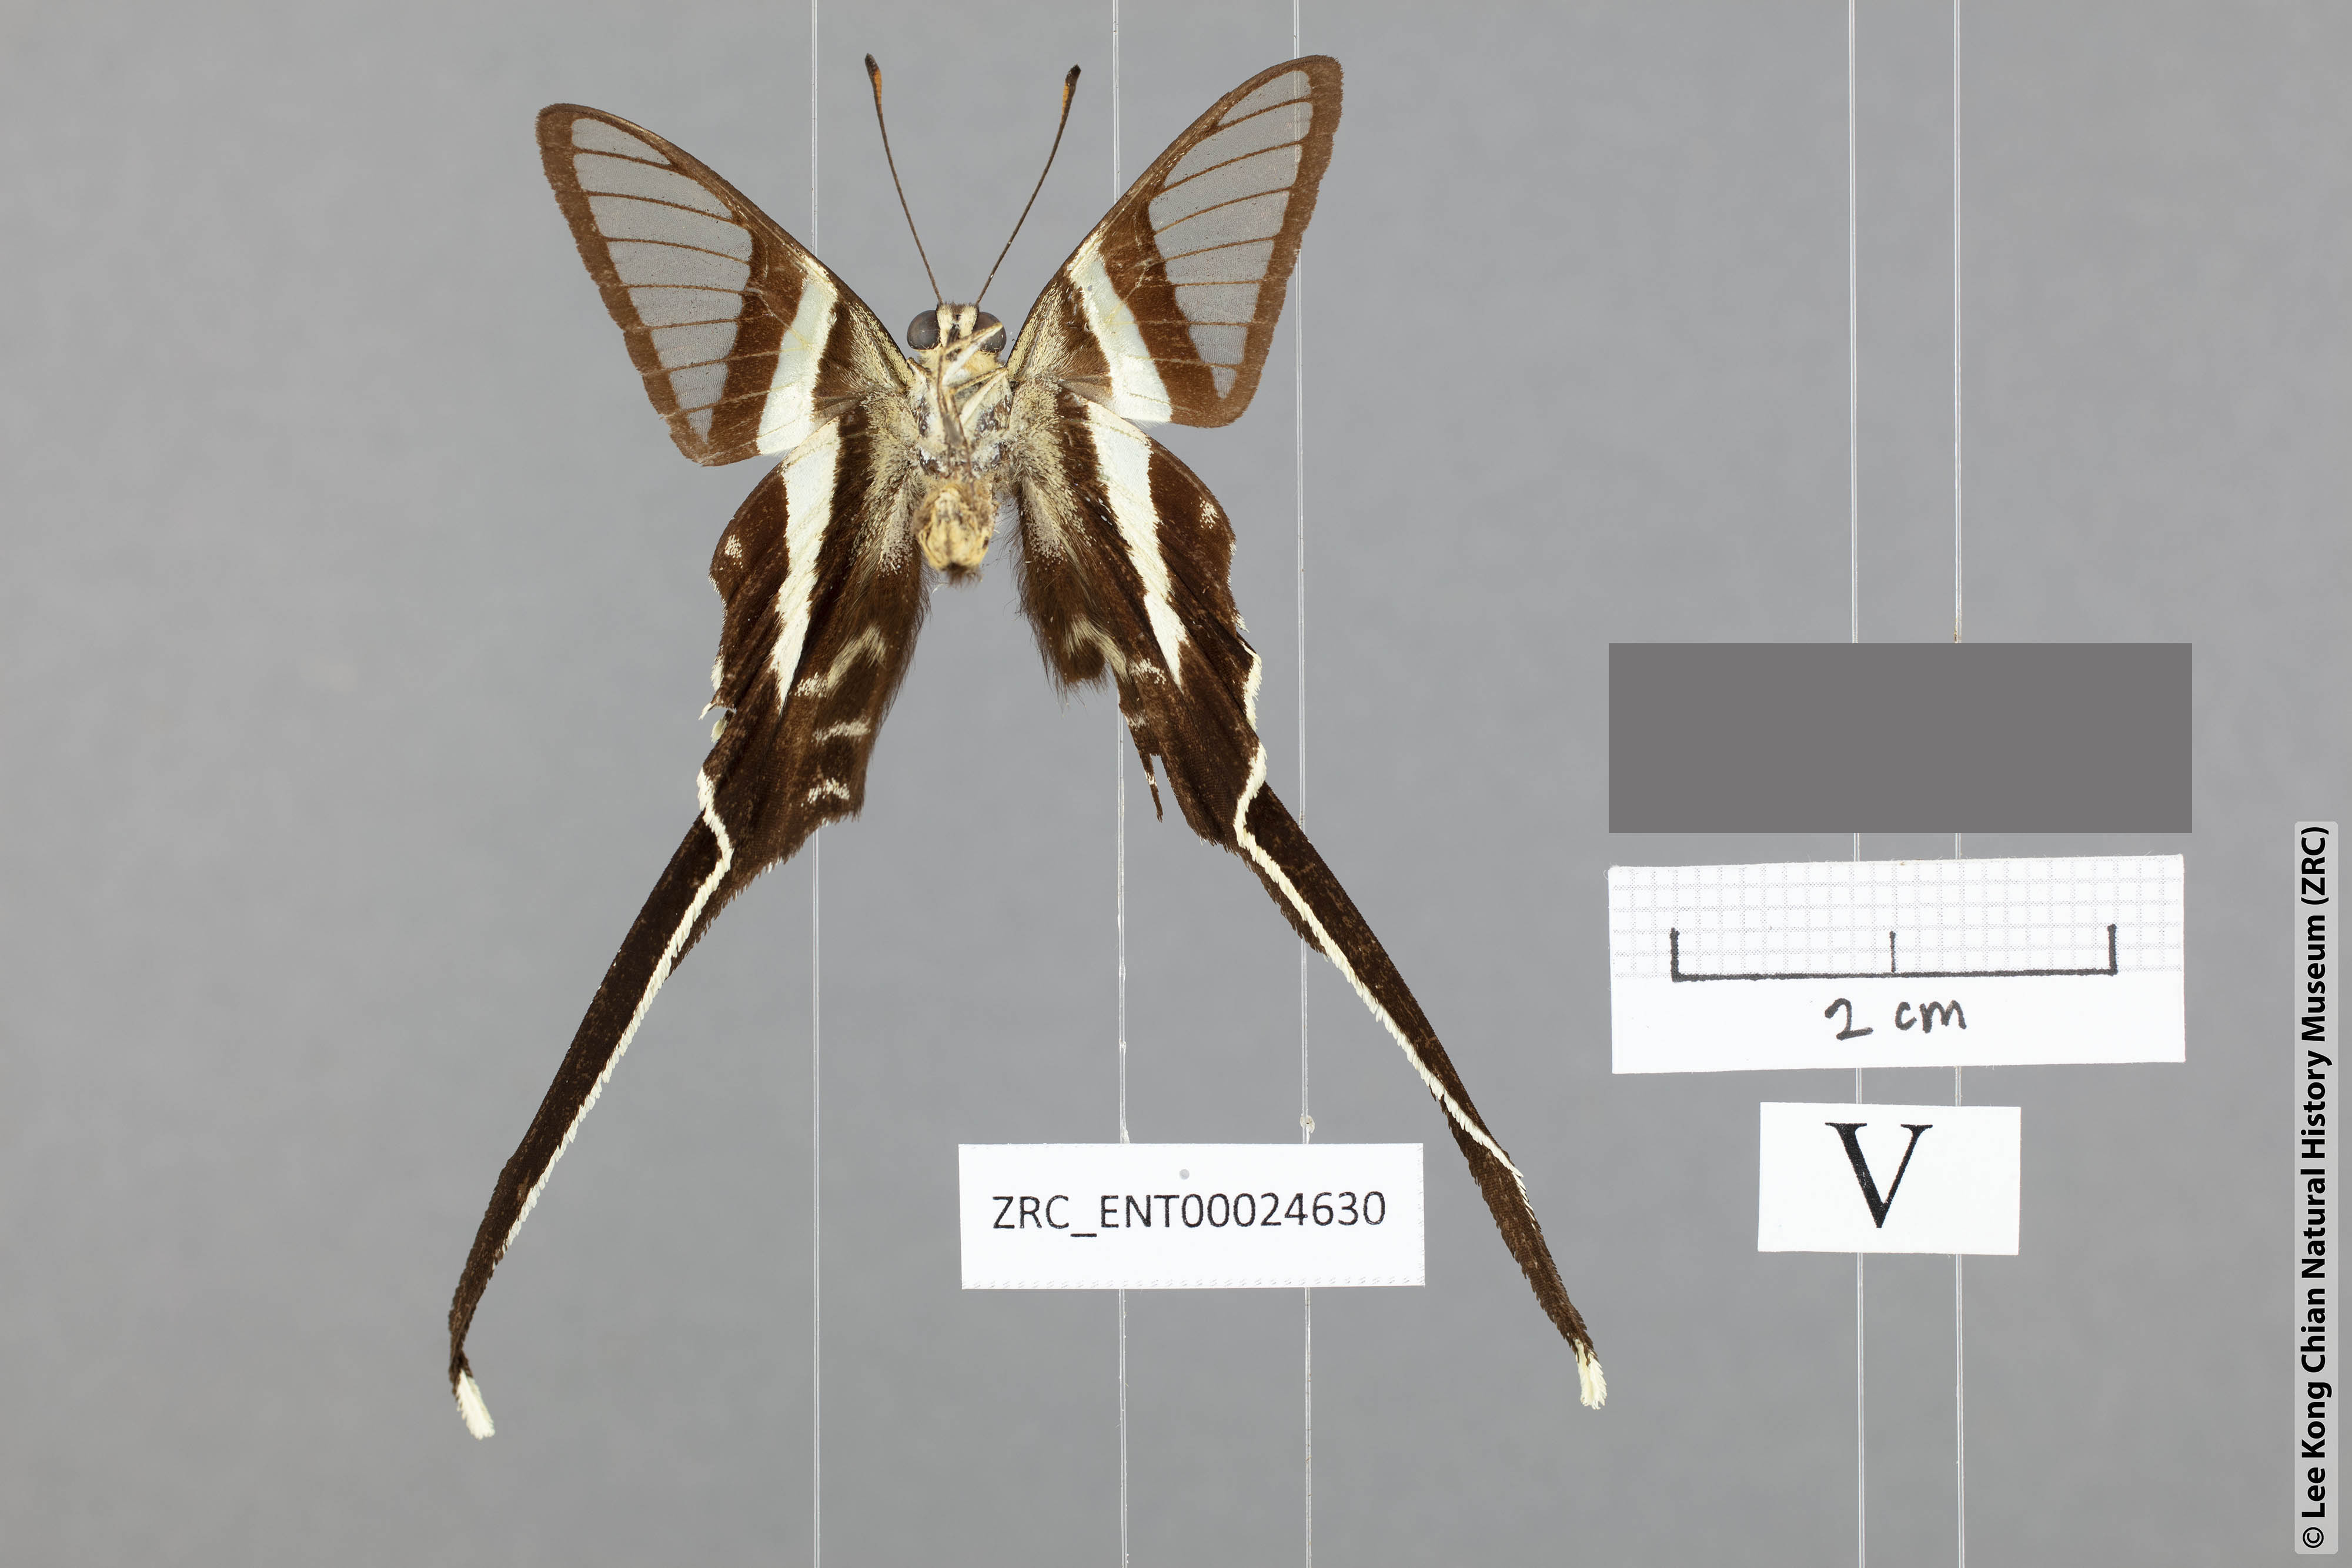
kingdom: Animalia
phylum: Arthropoda
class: Insecta
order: Lepidoptera
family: Papilionidae
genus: Lamproptera
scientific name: Lamproptera meges
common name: Green dragontail
